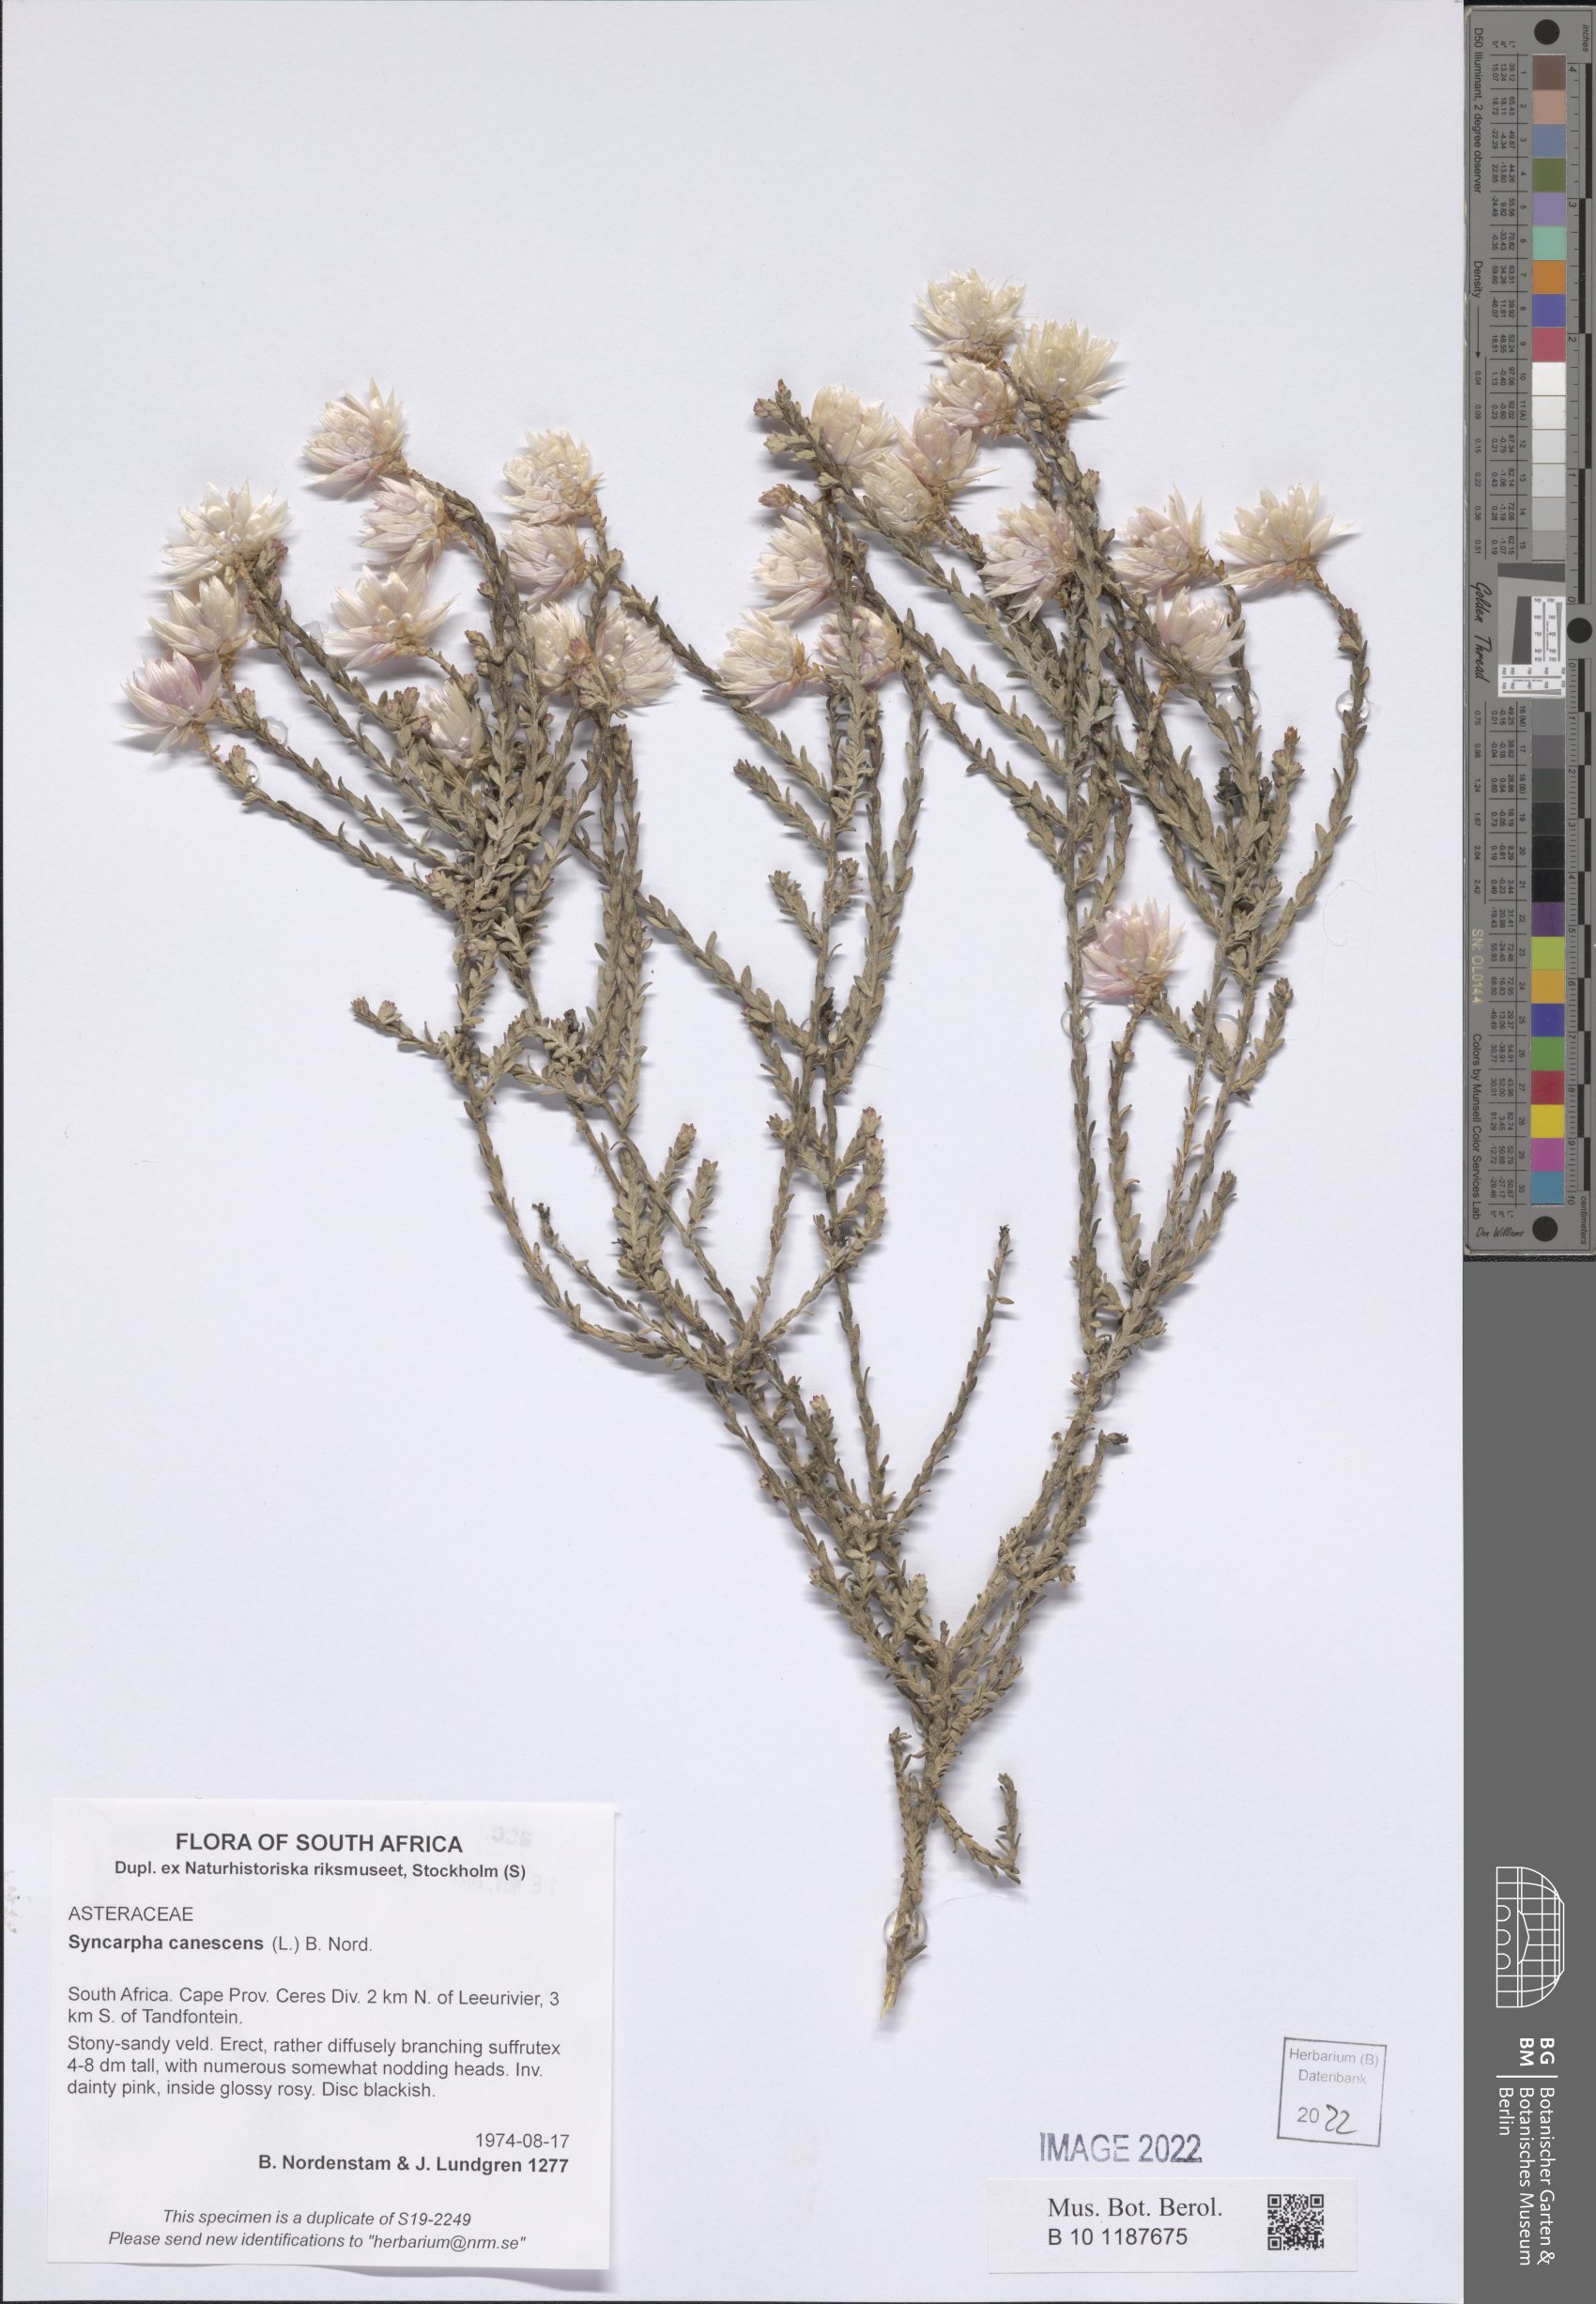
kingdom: Plantae
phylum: Tracheophyta
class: Magnoliopsida
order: Asterales
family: Asteraceae
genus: Syncarpha
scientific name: Syncarpha canescens
